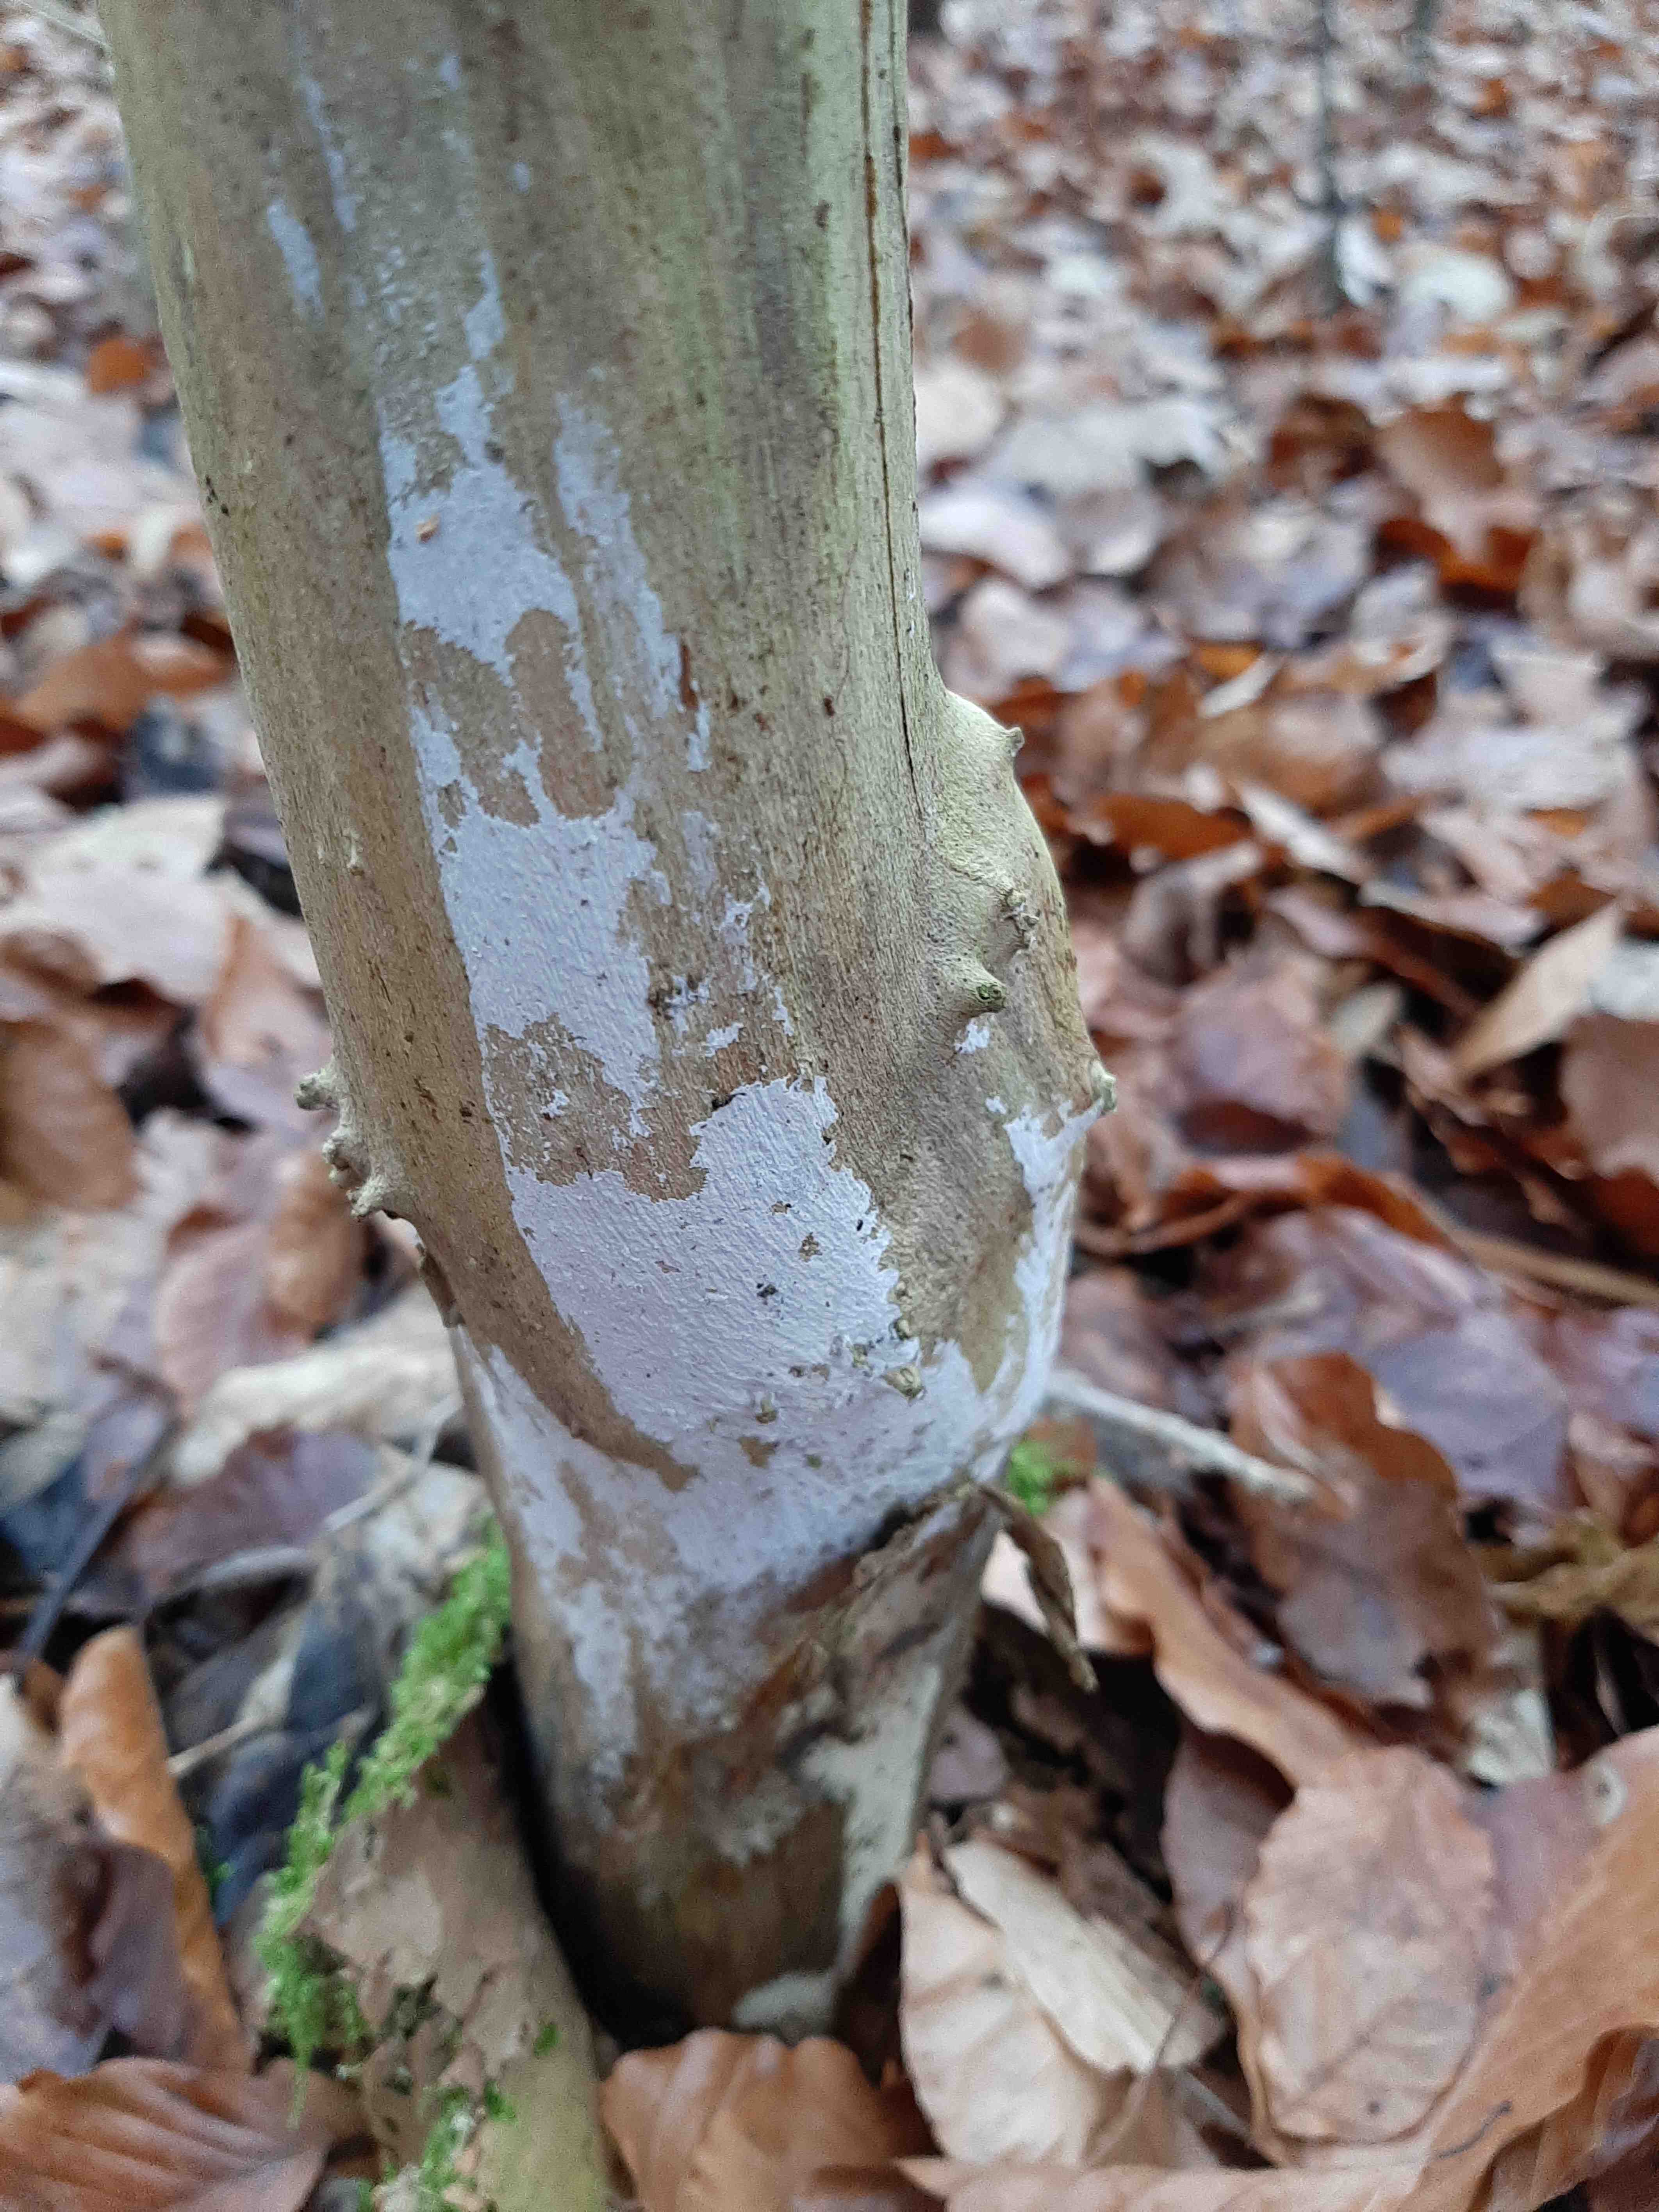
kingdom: Fungi
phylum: Basidiomycota
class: Agaricomycetes
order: Corticiales
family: Corticiaceae
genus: Lyomyces
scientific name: Lyomyces sambuci
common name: almindelig hyldehinde
